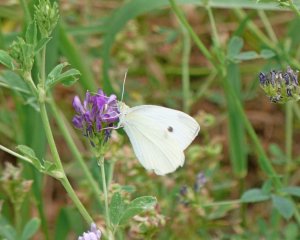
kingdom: Animalia
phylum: Arthropoda
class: Insecta
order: Lepidoptera
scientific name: Lepidoptera
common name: Butterflies
